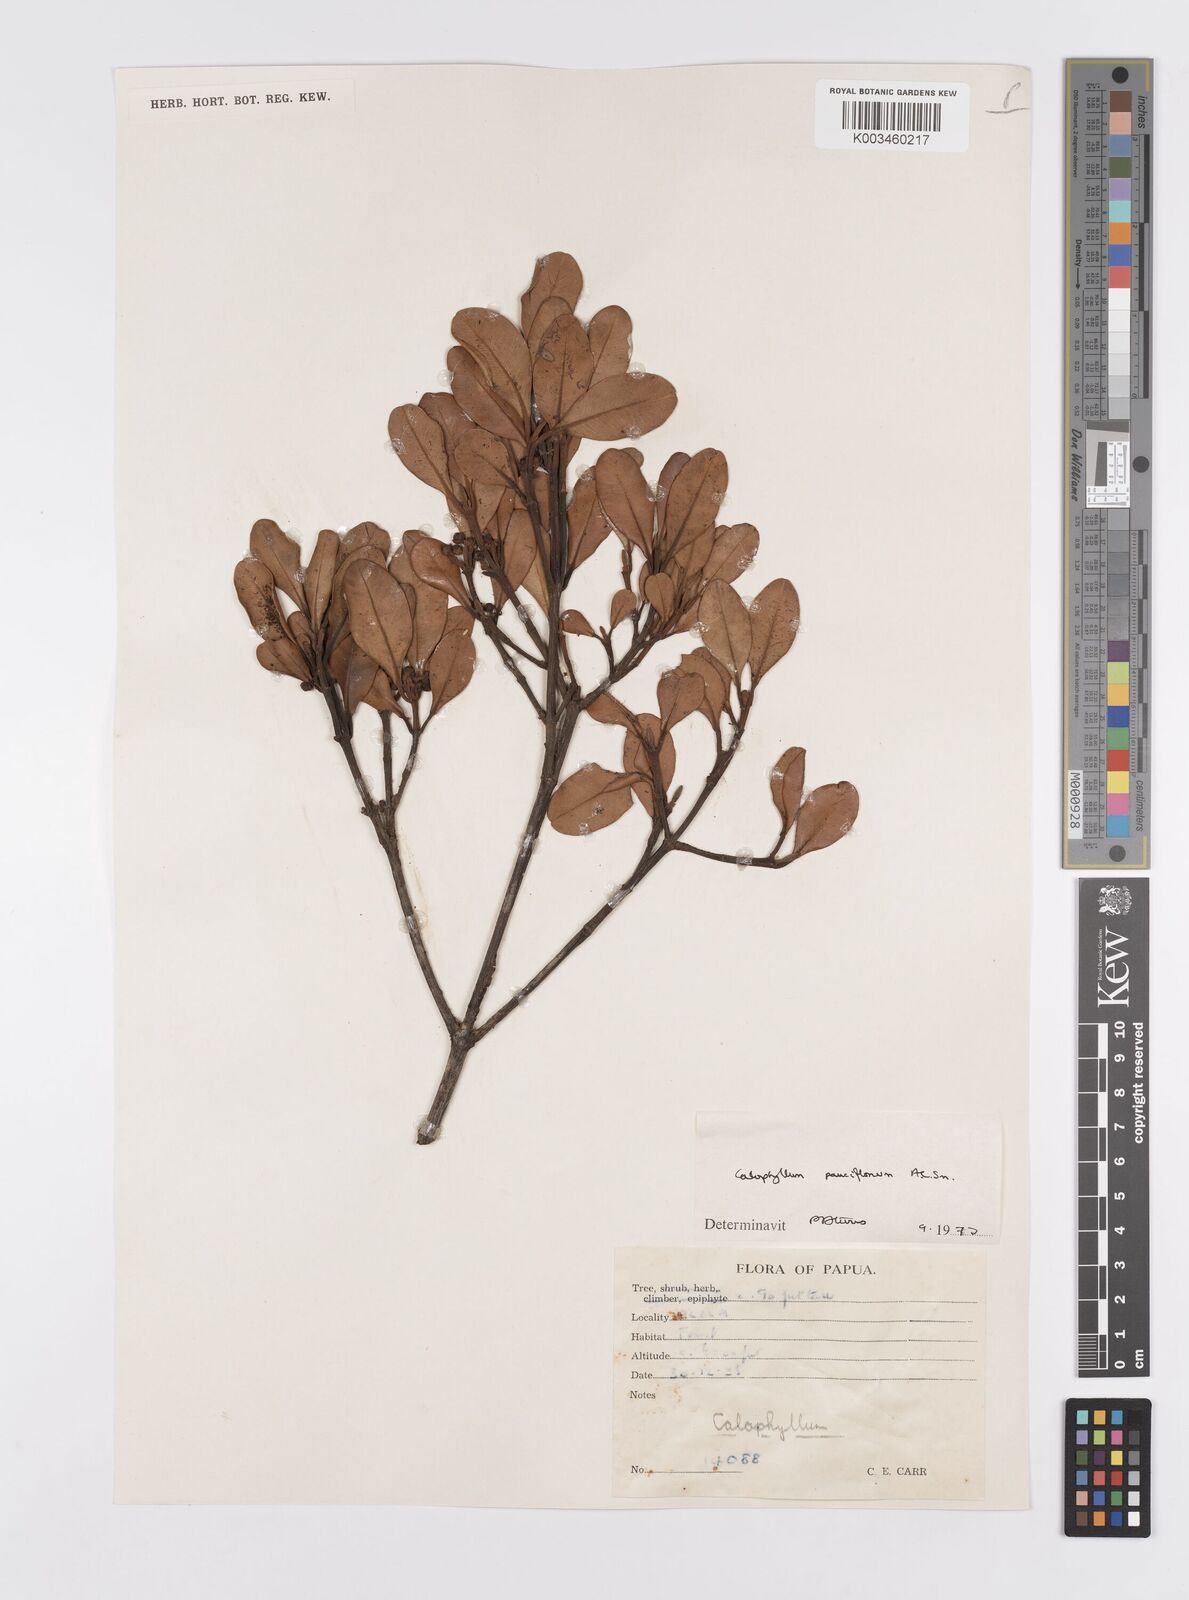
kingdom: Plantae
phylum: Tracheophyta
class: Magnoliopsida
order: Malpighiales
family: Calophyllaceae
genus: Calophyllum
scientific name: Calophyllum parviflorum
